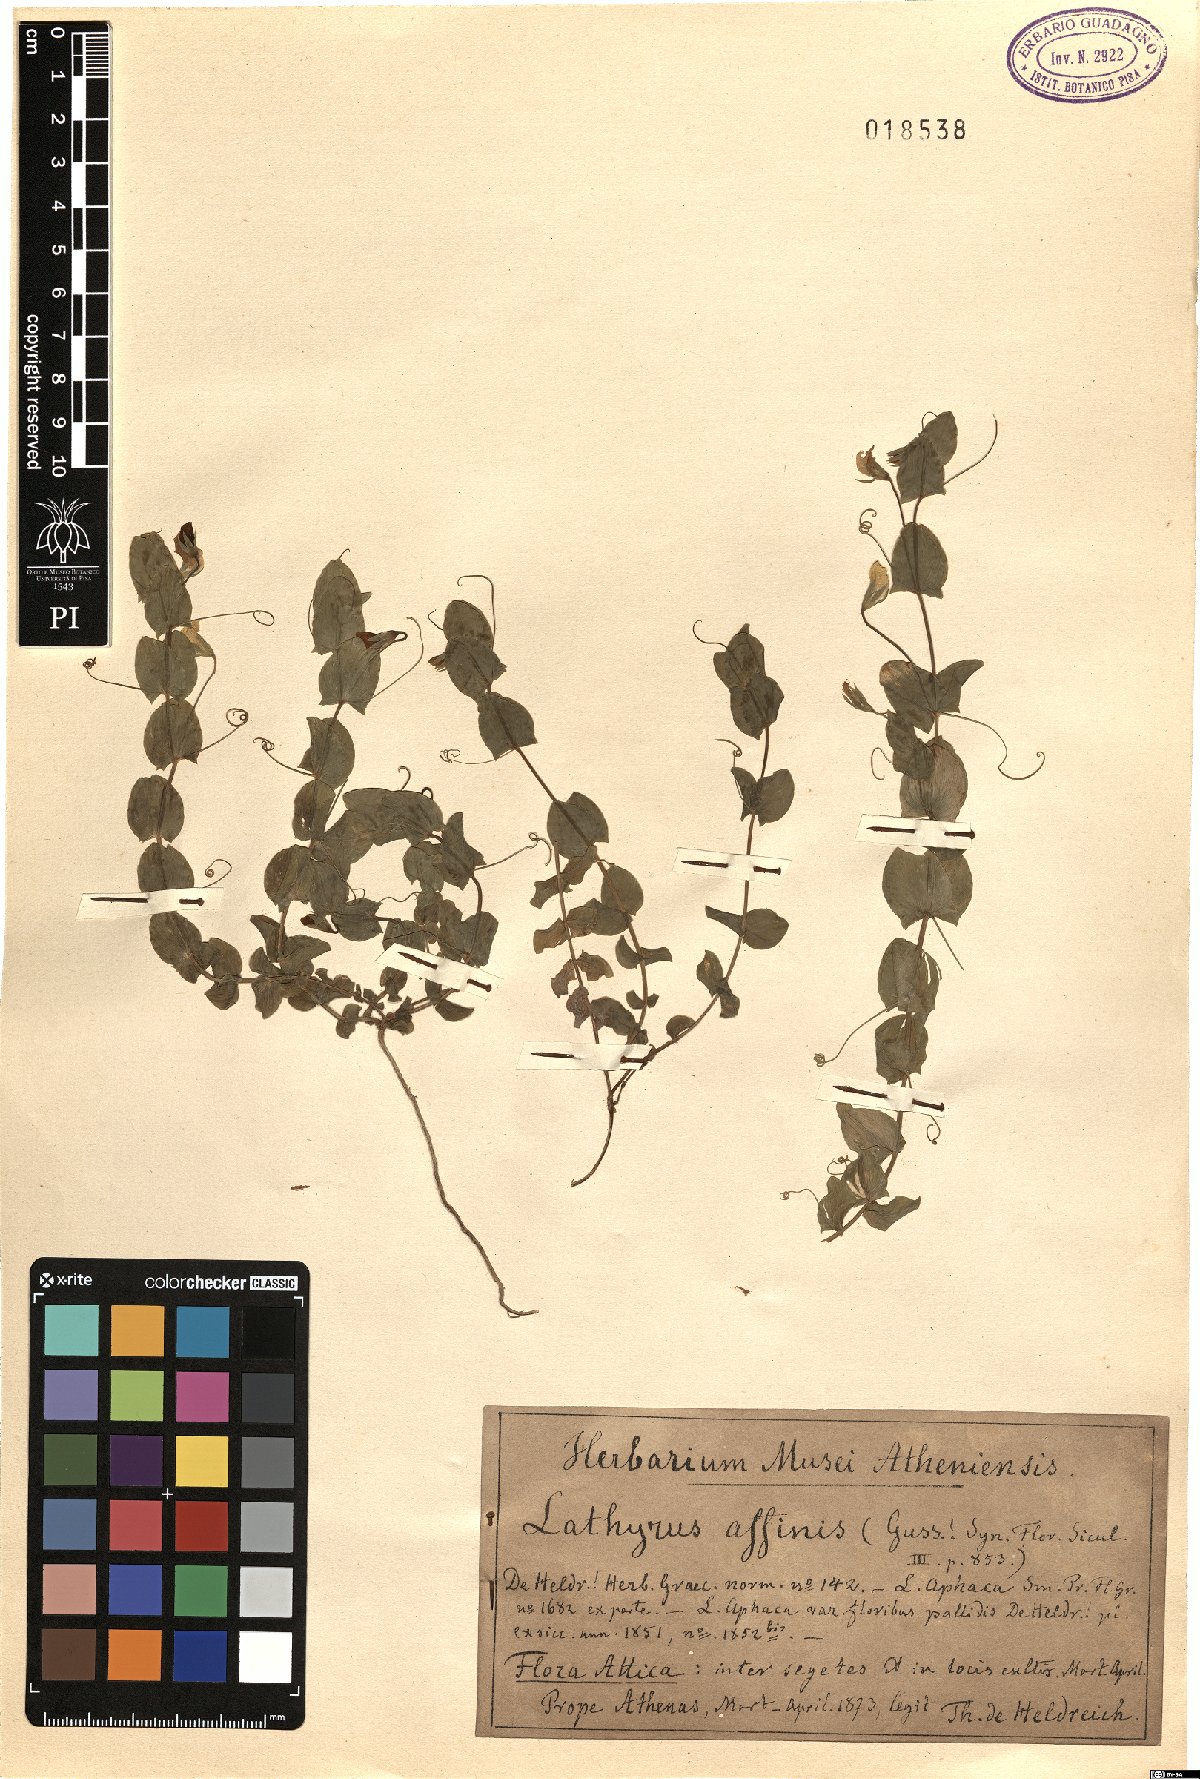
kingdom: Plantae
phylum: Tracheophyta
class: Magnoliopsida
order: Fabales
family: Fabaceae
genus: Lathyrus
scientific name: Lathyrus aphaca
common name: Yellow vetchling
